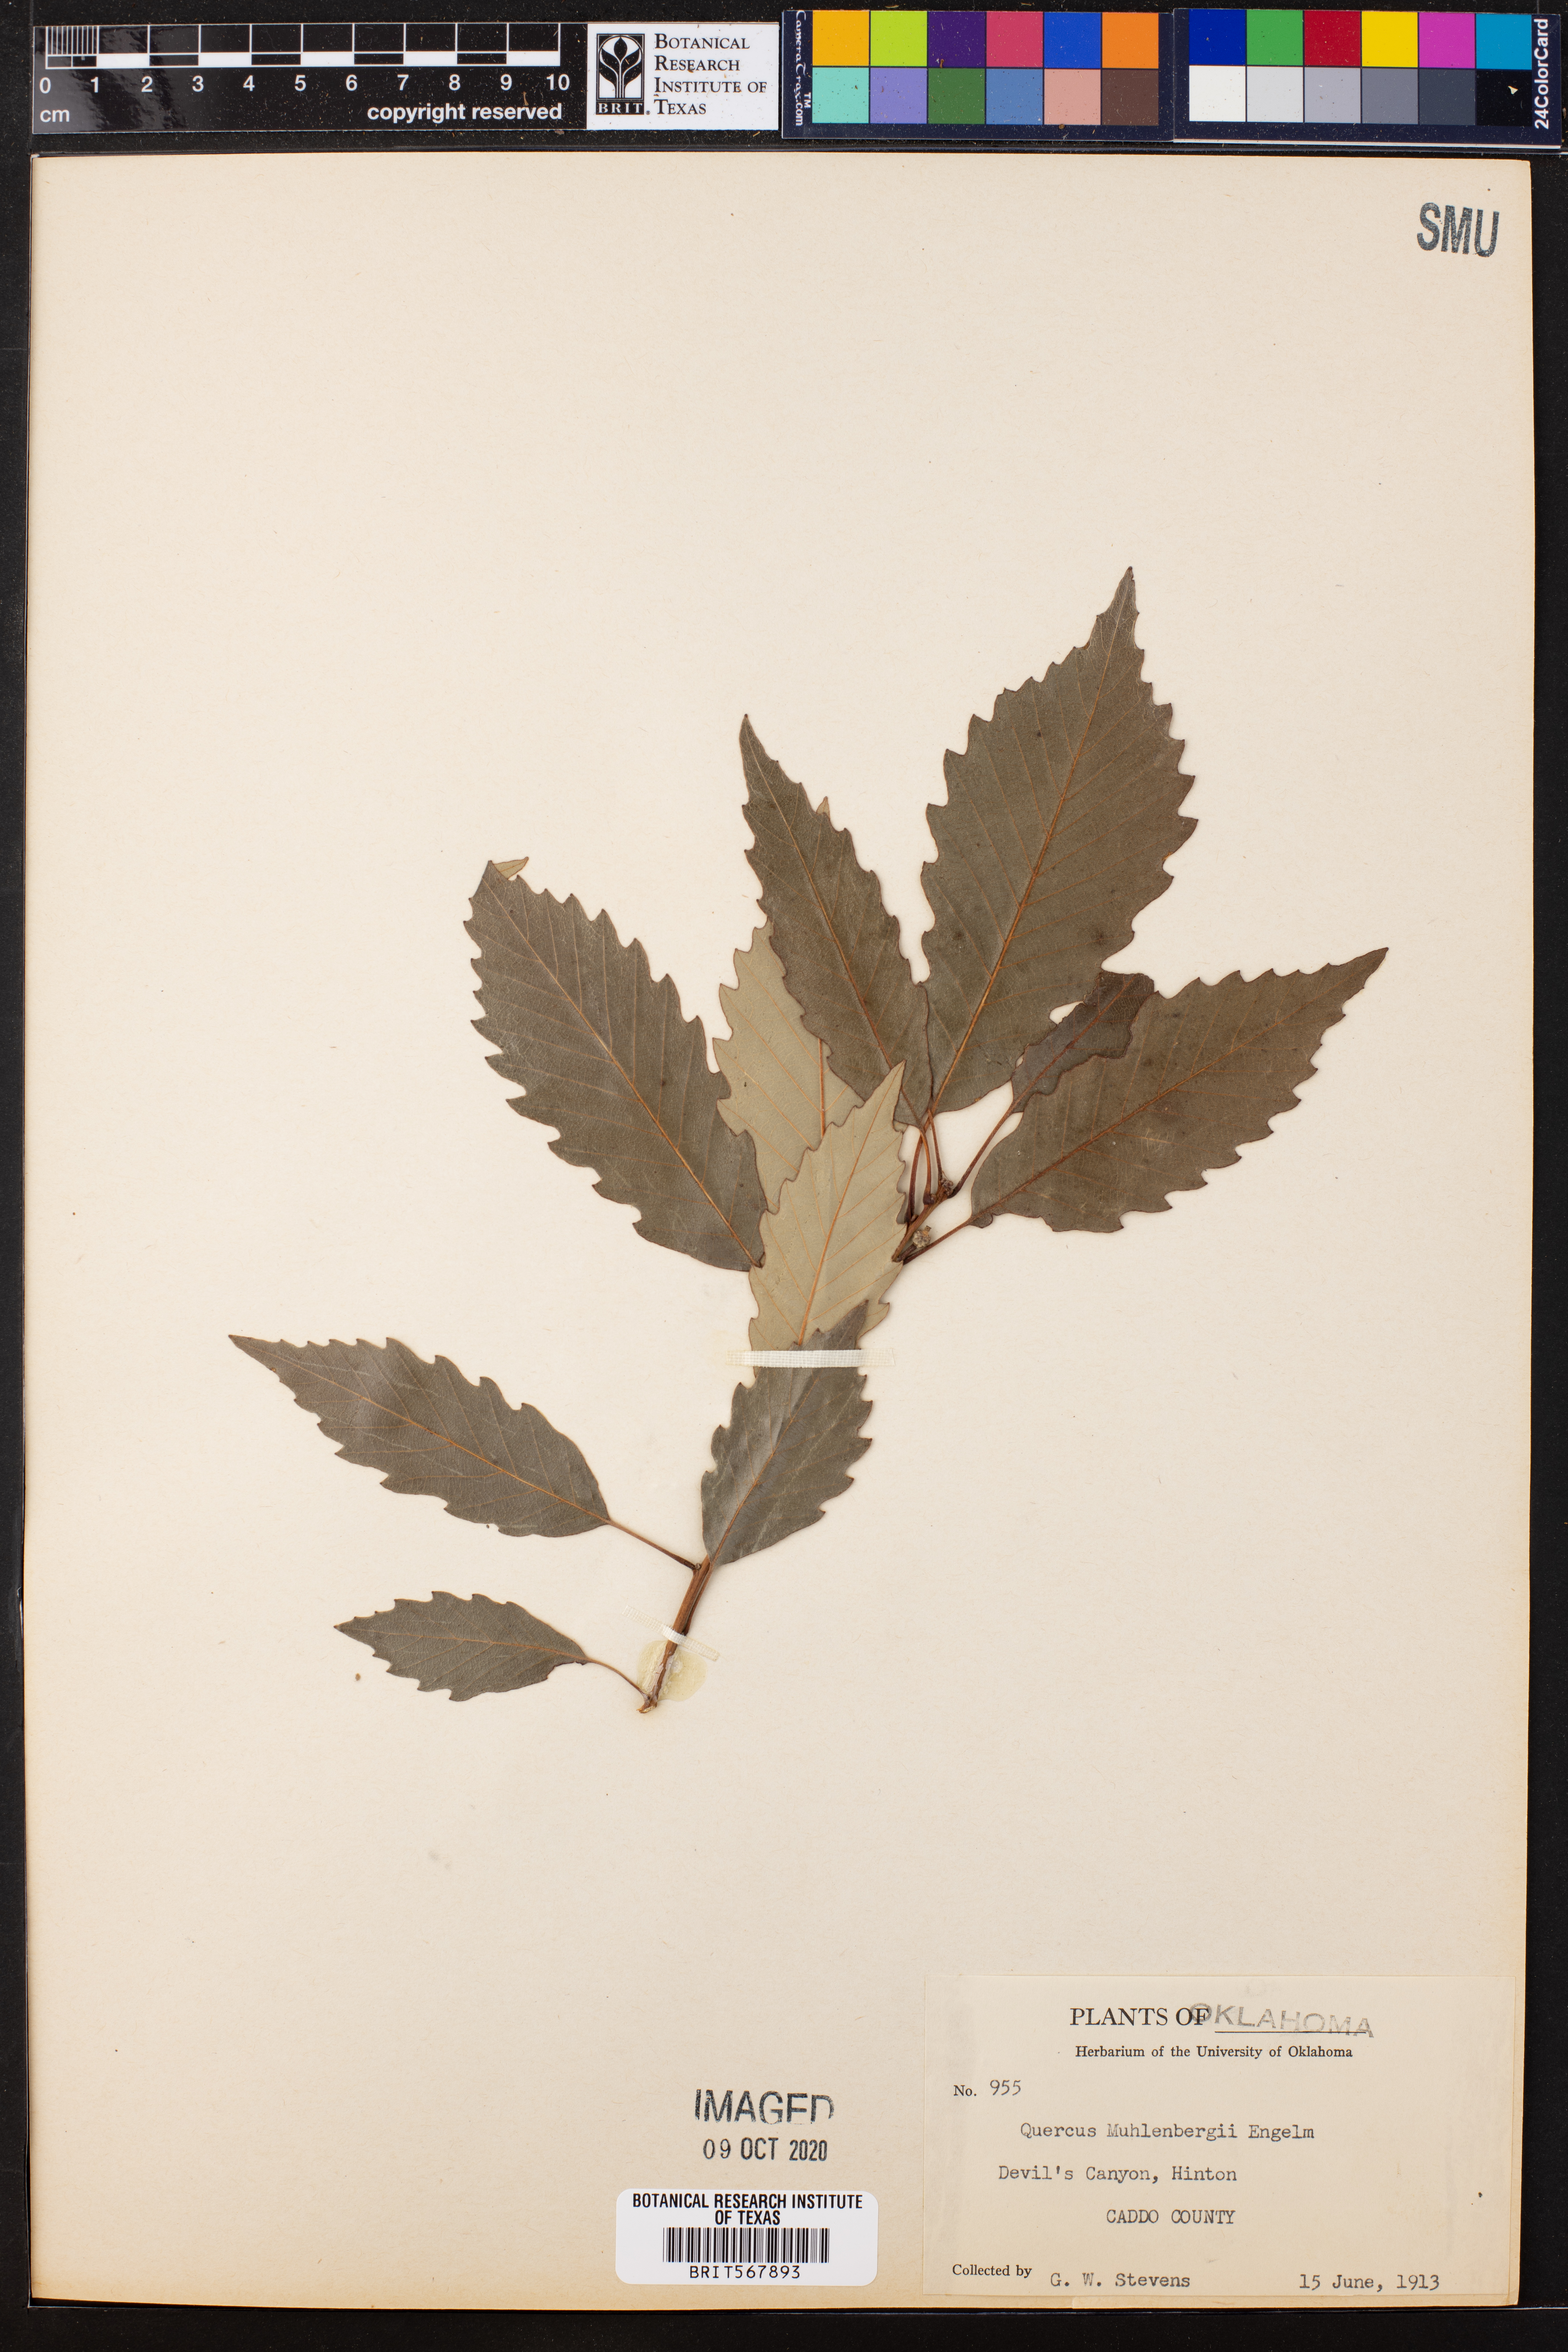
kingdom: Plantae
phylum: Tracheophyta
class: Magnoliopsida
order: Fagales
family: Fagaceae
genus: Quercus
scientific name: Quercus muehlenbergii
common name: Chinkapin oak
